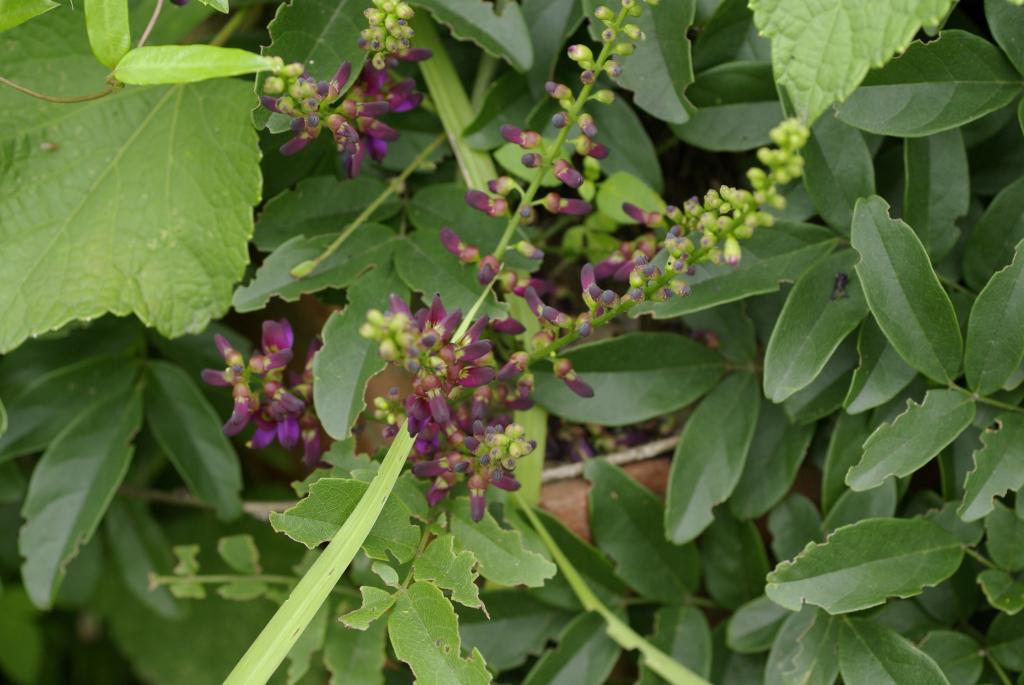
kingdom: Plantae
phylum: Tracheophyta
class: Magnoliopsida
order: Fabales
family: Fabaceae
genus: Wisteriopsis
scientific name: Wisteriopsis reticulata
